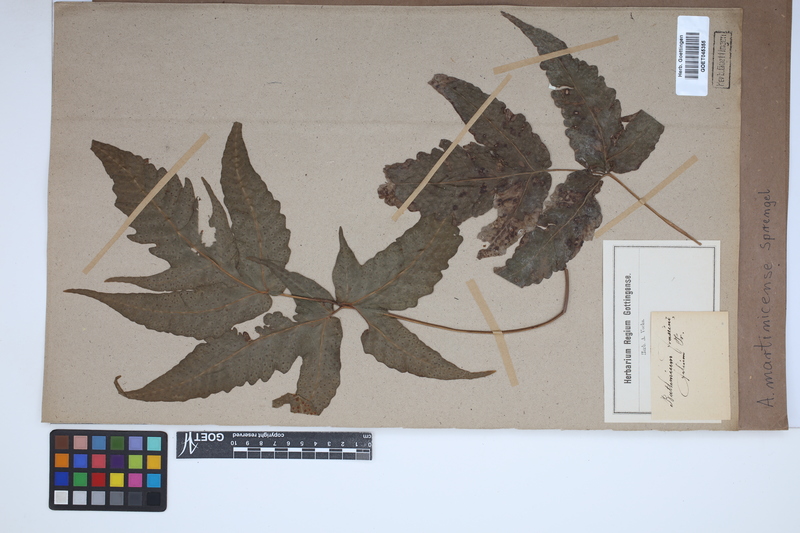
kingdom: Plantae
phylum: Tracheophyta
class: Polypodiopsida
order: Polypodiales
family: Tectariaceae
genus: Tectaria
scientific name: Tectaria incisa
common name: Incised halberd fern
